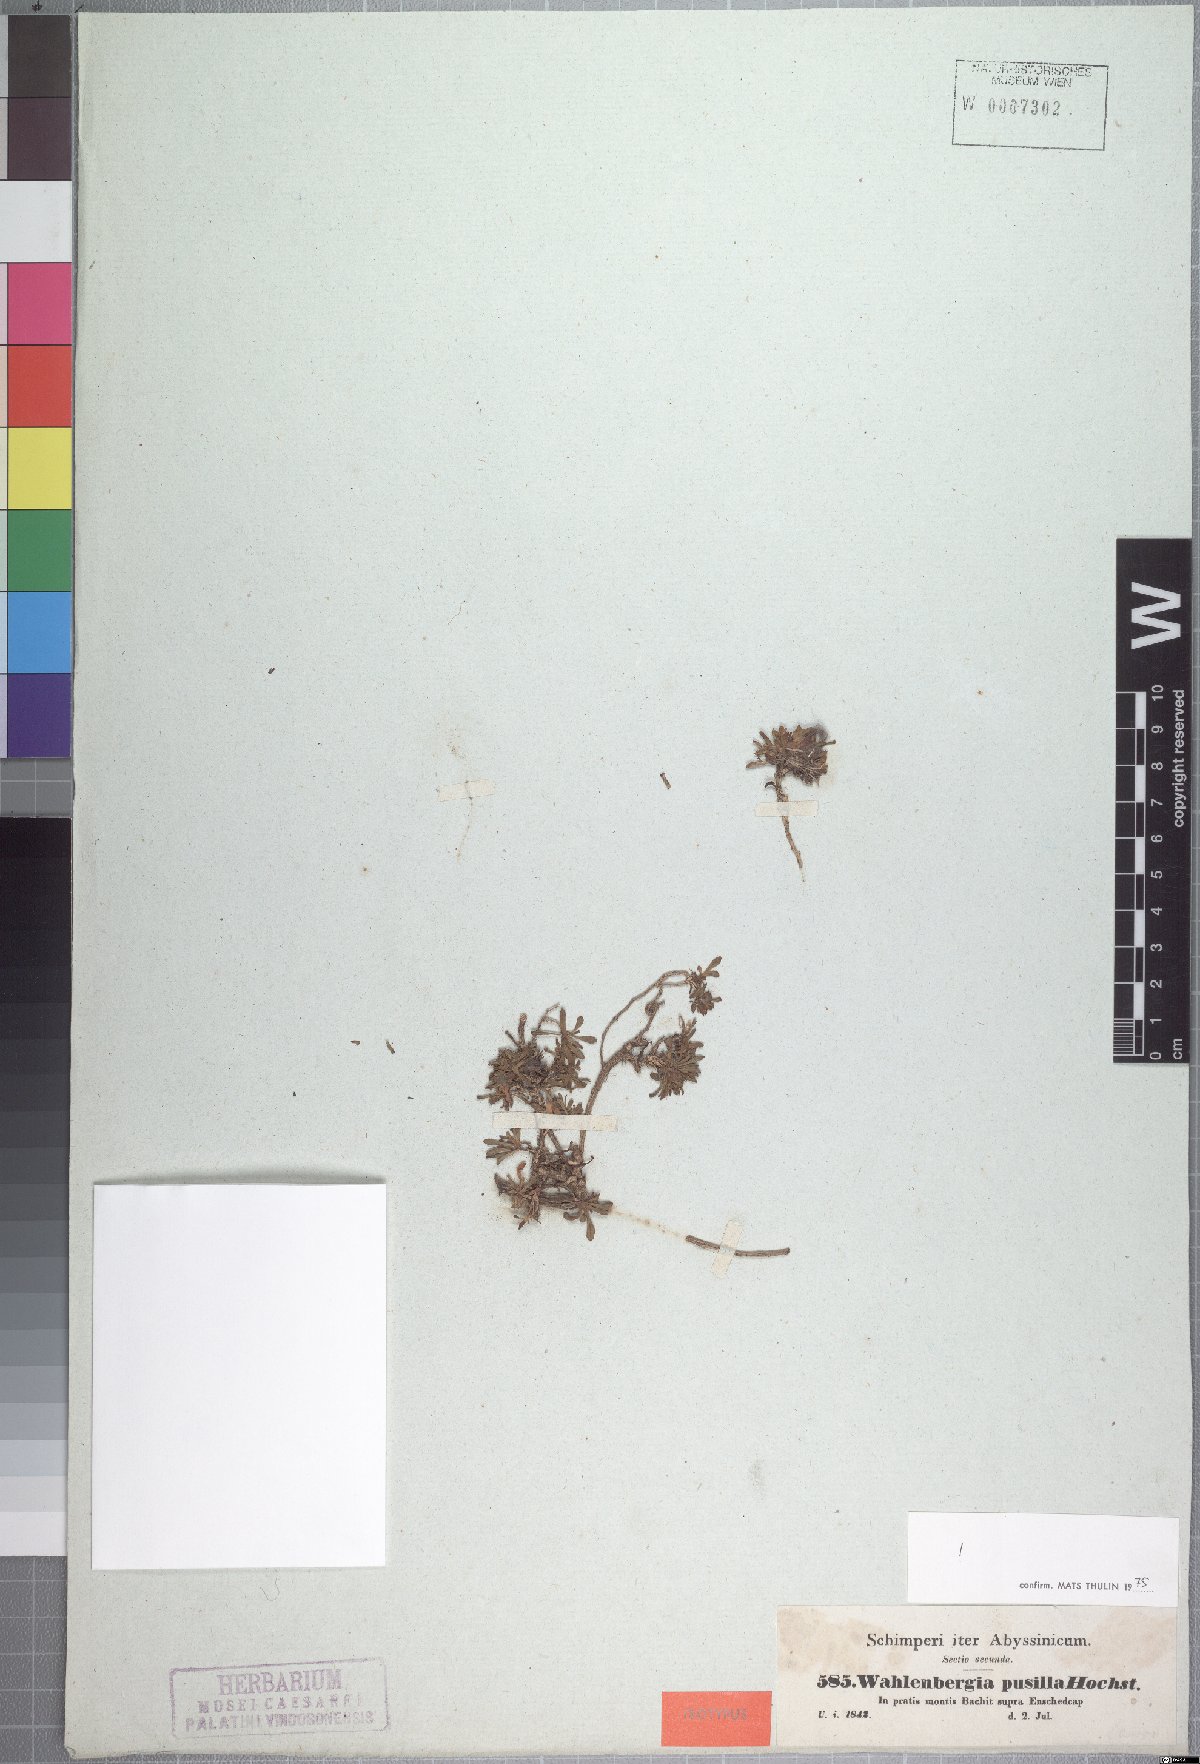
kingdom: Plantae
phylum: Tracheophyta
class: Magnoliopsida
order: Asterales
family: Campanulaceae
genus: Wahlenbergia
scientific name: Wahlenbergia pusilla
